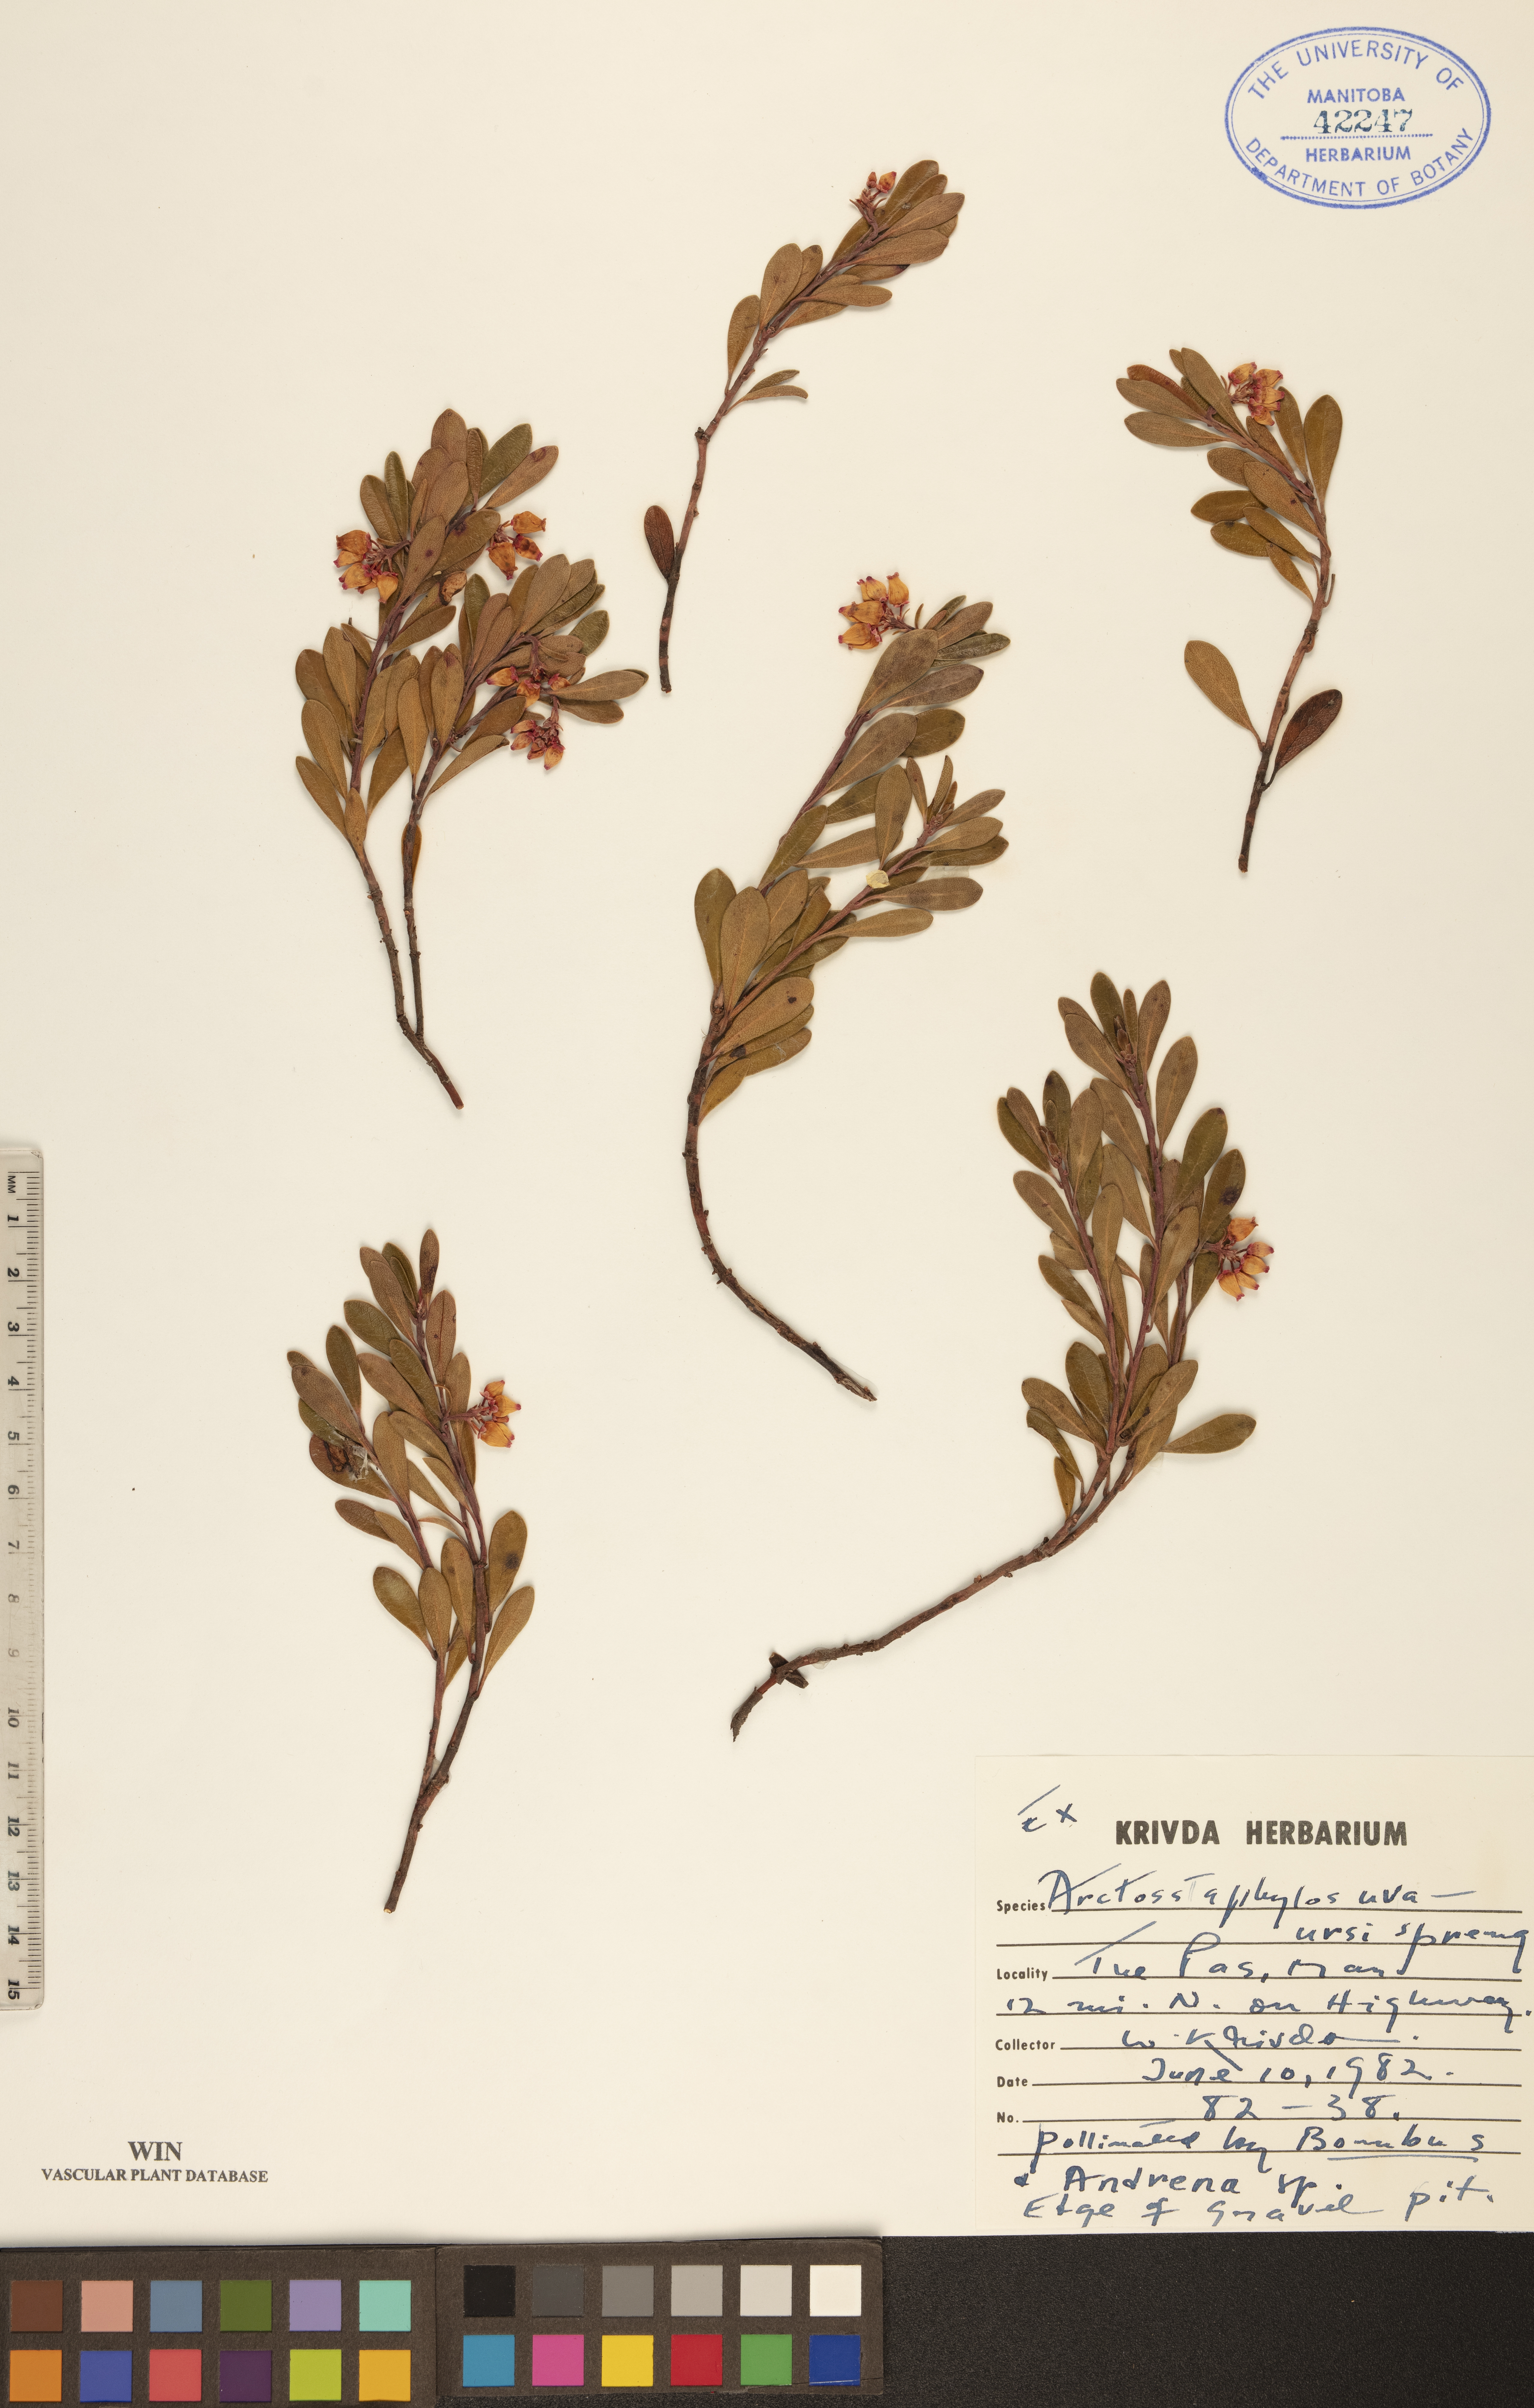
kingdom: Plantae
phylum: Tracheophyta
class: Magnoliopsida
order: Ericales
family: Ericaceae
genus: Arctostaphylos
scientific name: Arctostaphylos uva-ursi
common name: Bearberry
